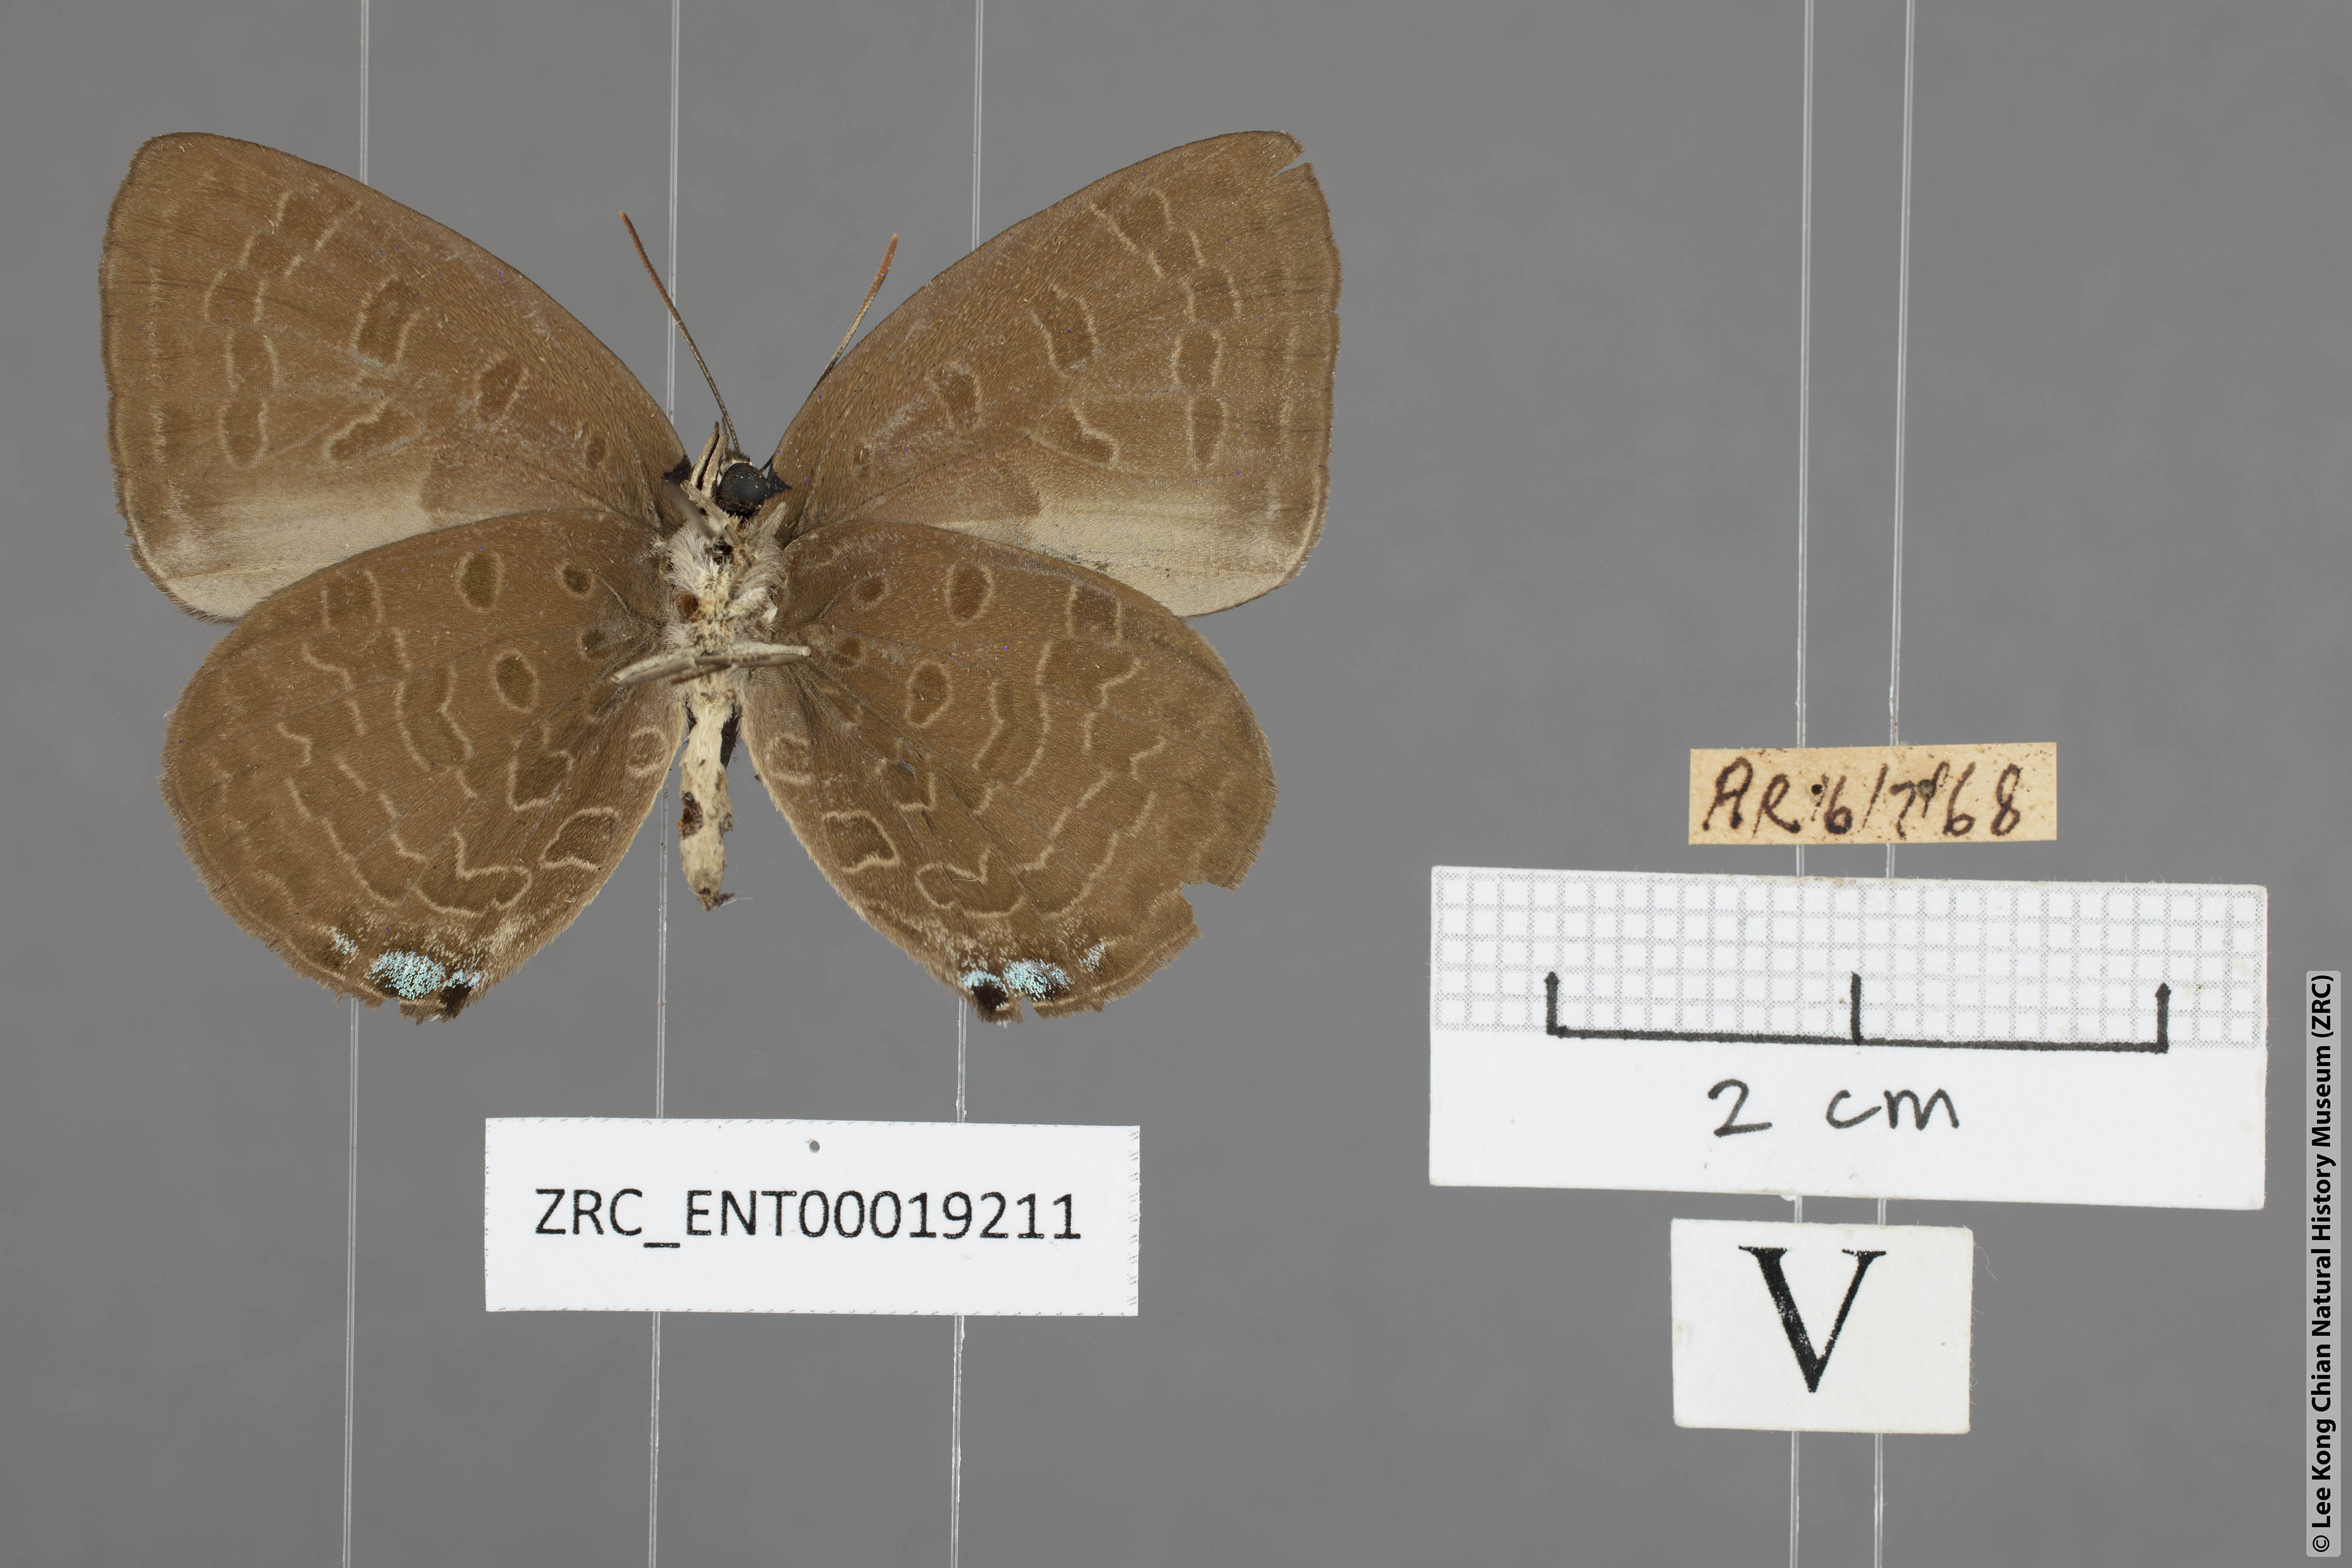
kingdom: Animalia
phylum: Arthropoda
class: Insecta
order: Lepidoptera
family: Lycaenidae
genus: Arhopala
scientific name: Arhopala arvina
